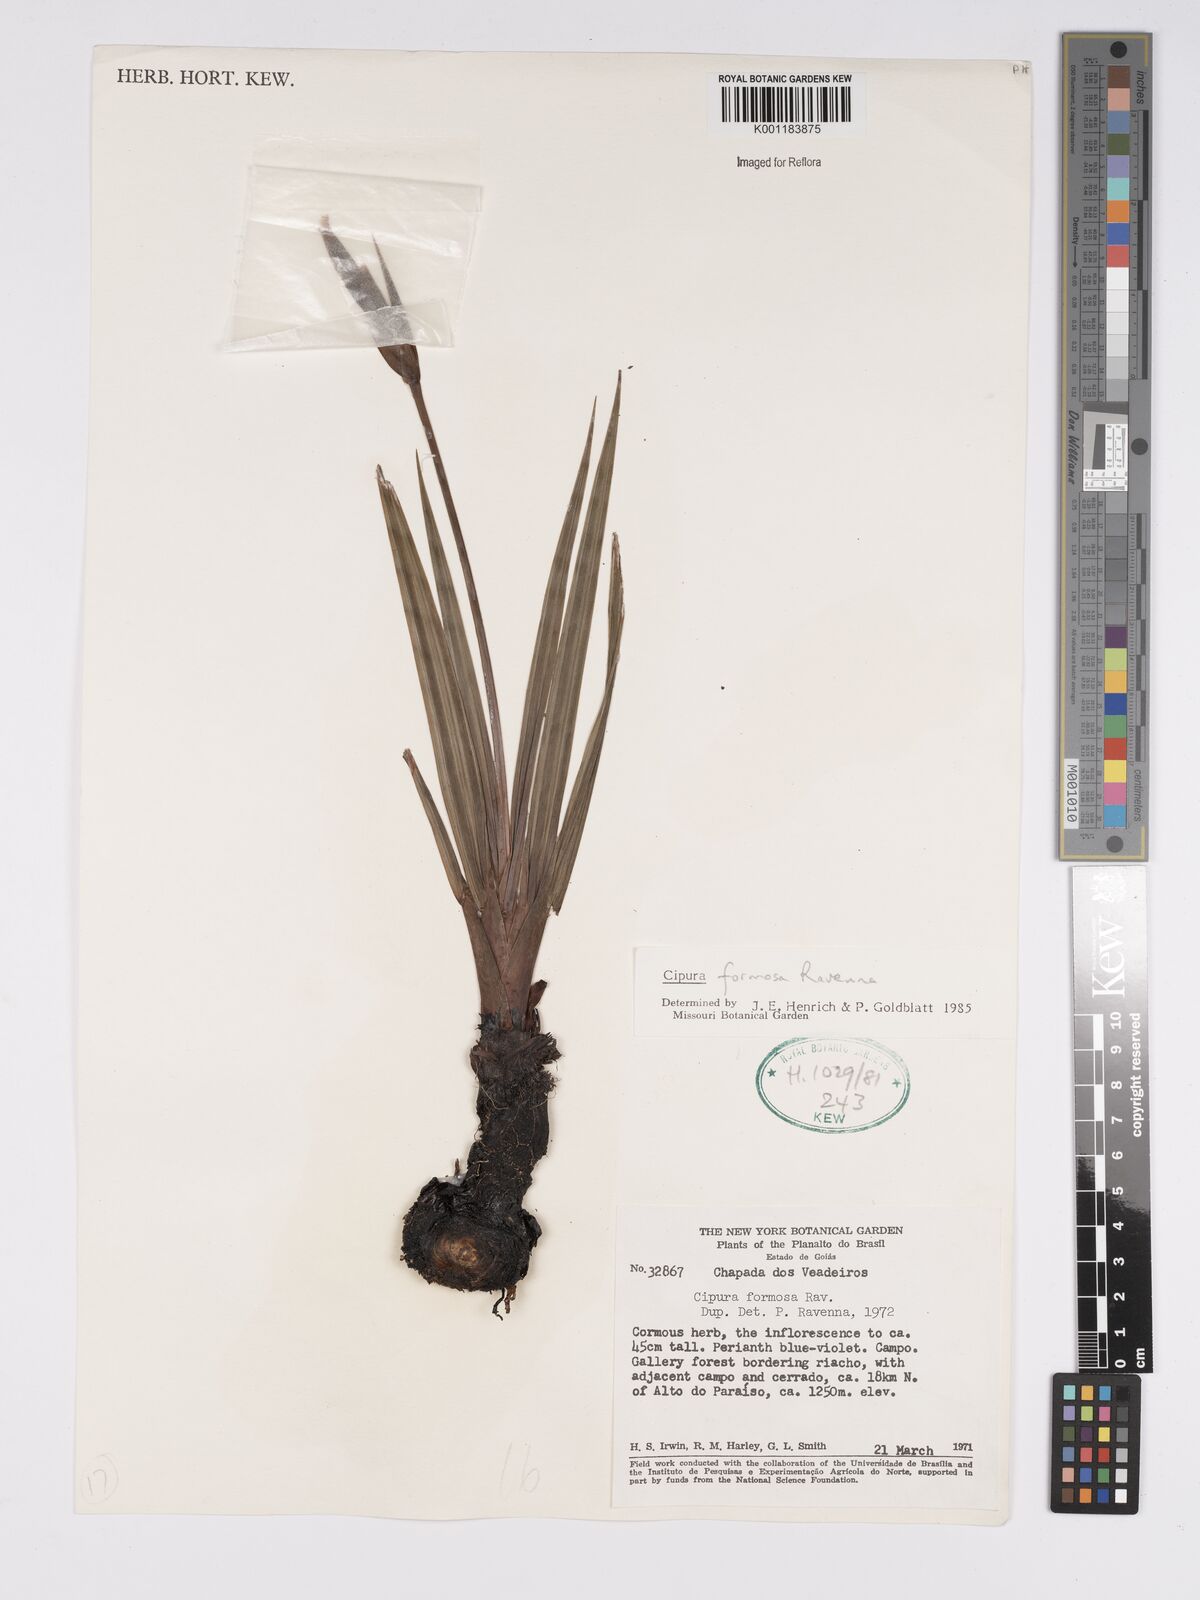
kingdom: Plantae
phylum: Tracheophyta
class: Liliopsida
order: Asparagales
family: Iridaceae
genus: Cipura
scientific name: Cipura formosa
